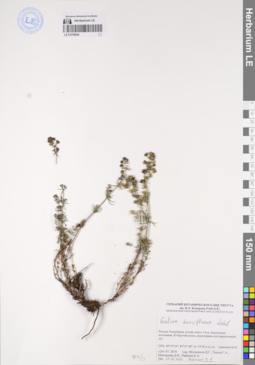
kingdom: Plantae
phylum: Tracheophyta
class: Magnoliopsida
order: Gentianales
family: Rubiaceae
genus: Galium
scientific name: Galium densiflorum
